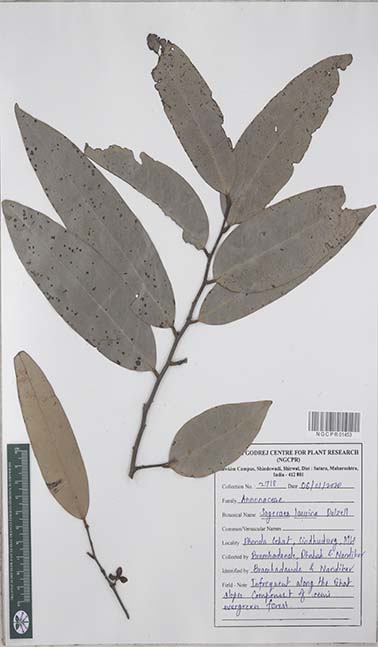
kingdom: Plantae
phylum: Tracheophyta
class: Magnoliopsida
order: Magnoliales
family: Annonaceae
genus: Sageraea
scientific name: Sageraea laurina
